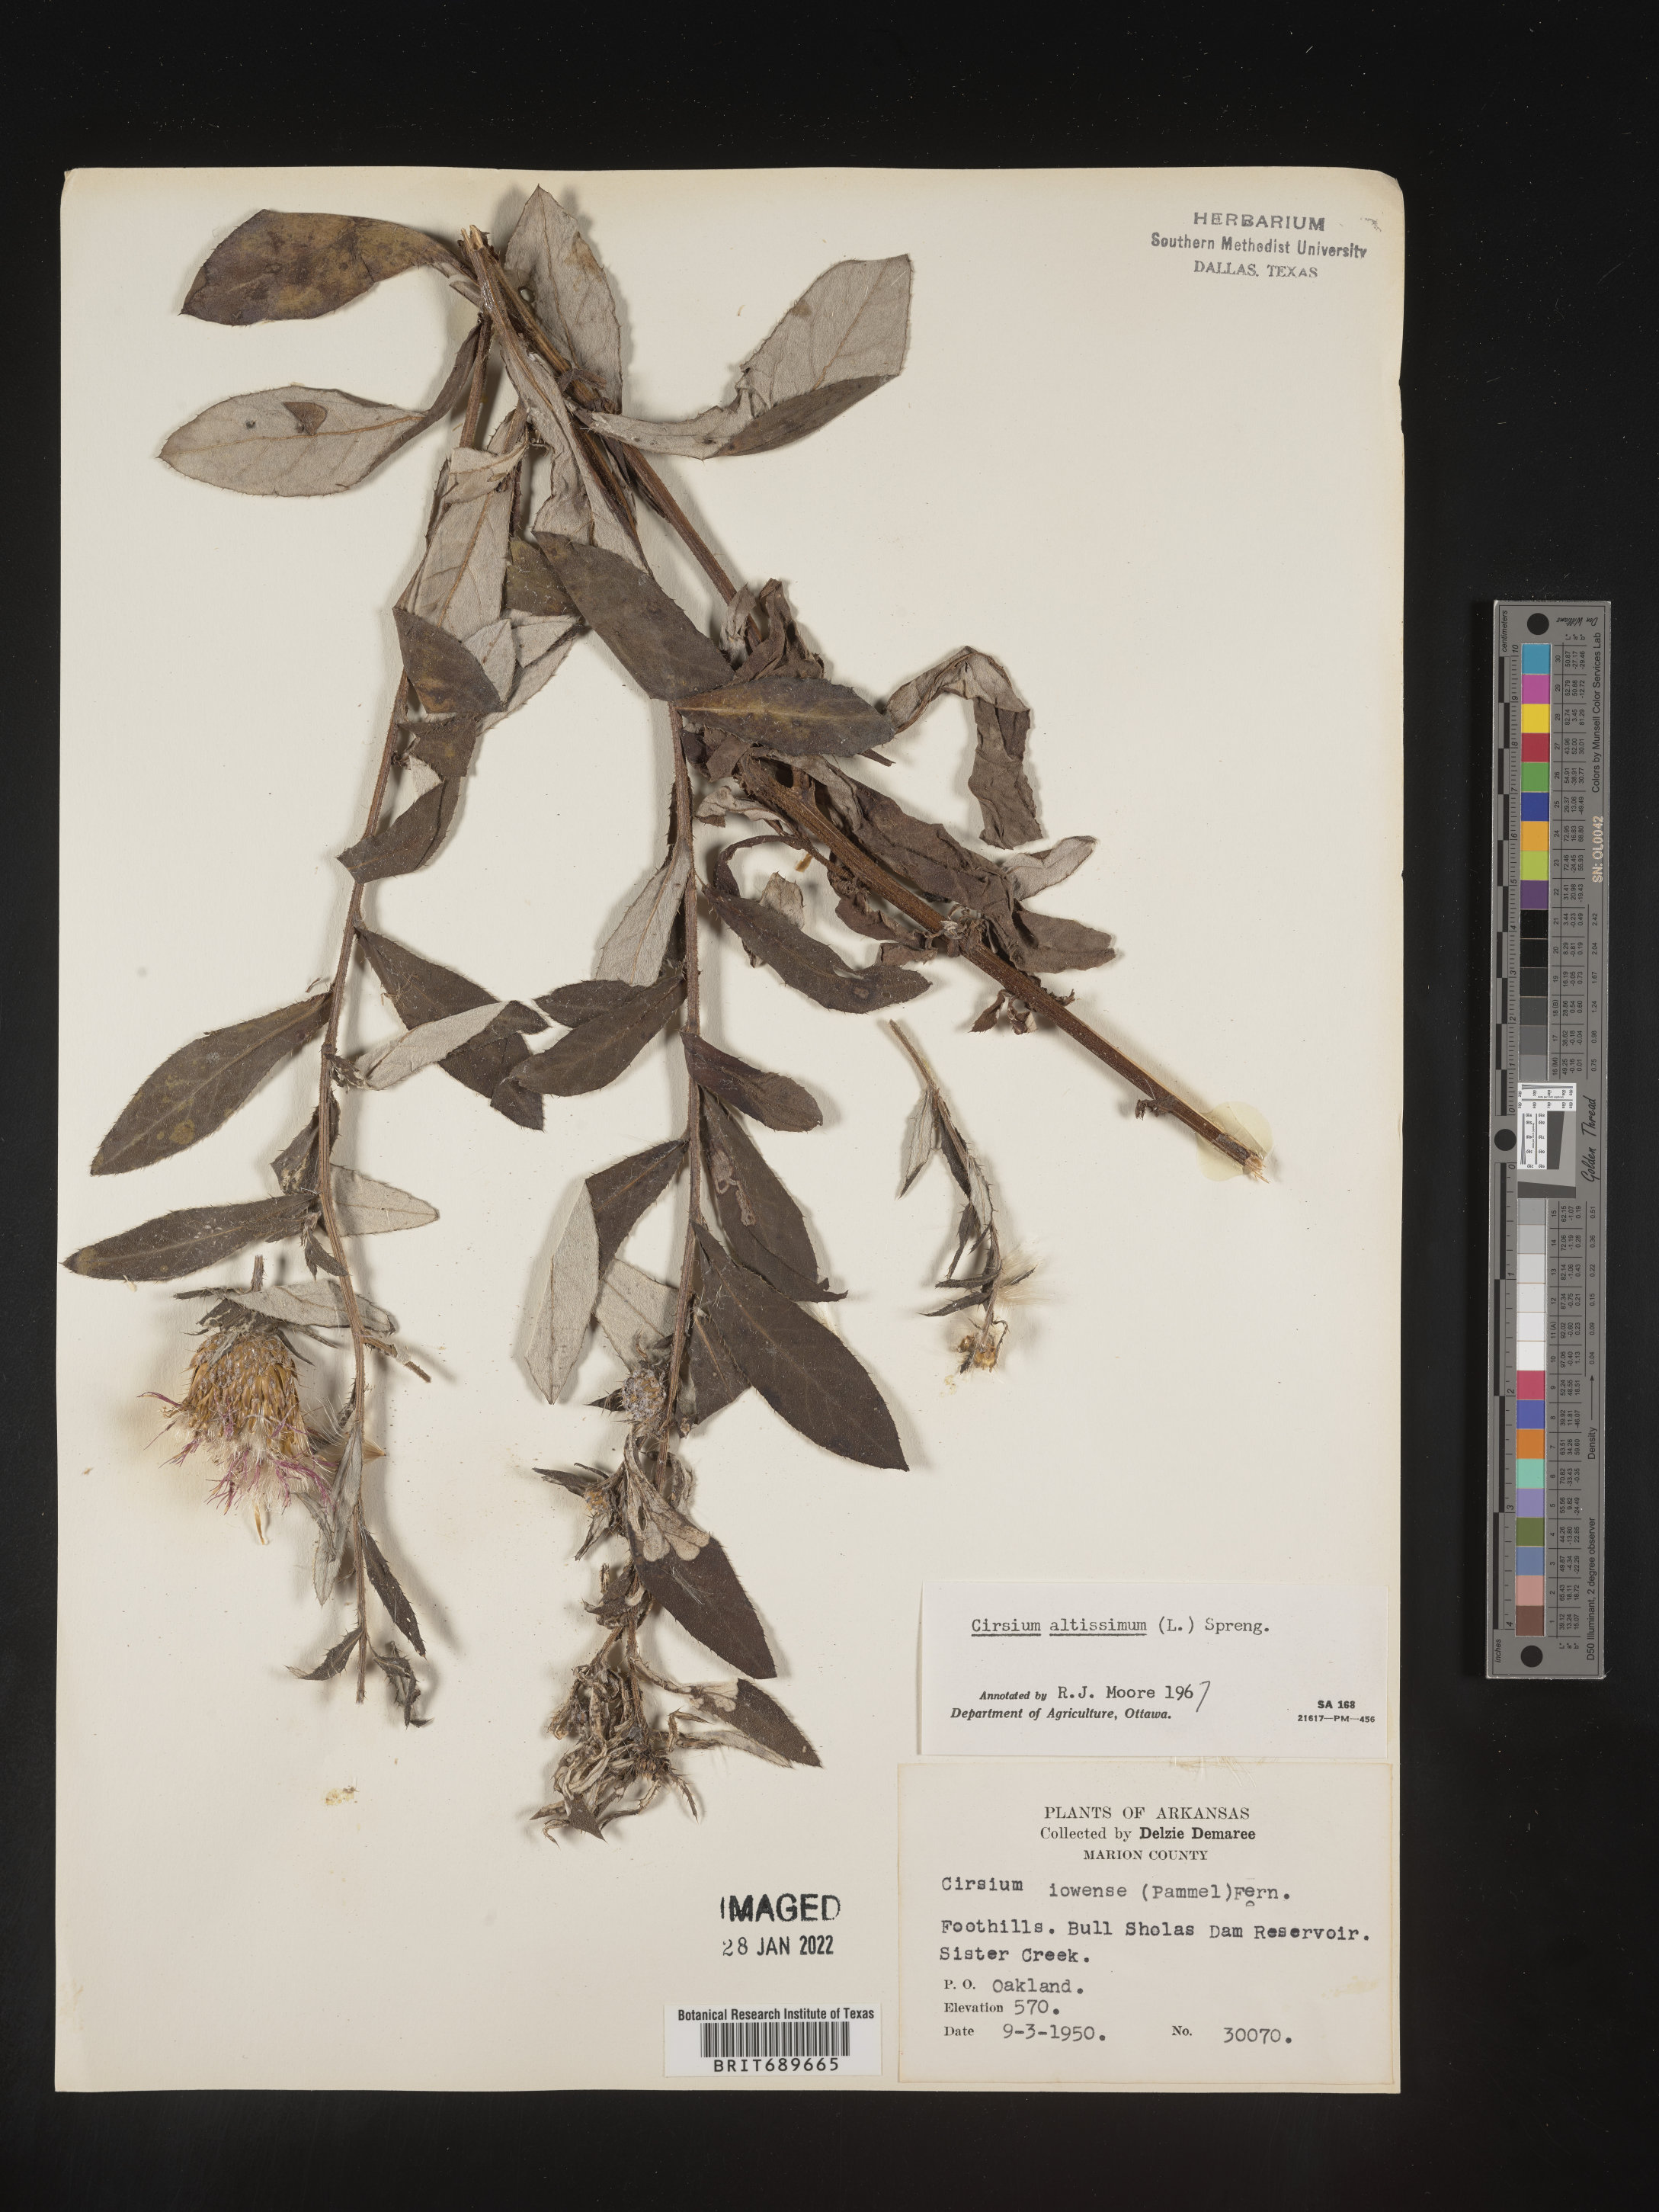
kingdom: Plantae
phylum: Tracheophyta
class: Magnoliopsida
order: Asterales
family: Asteraceae
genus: Cirsium
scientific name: Cirsium altissimum
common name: Roadside thistle
